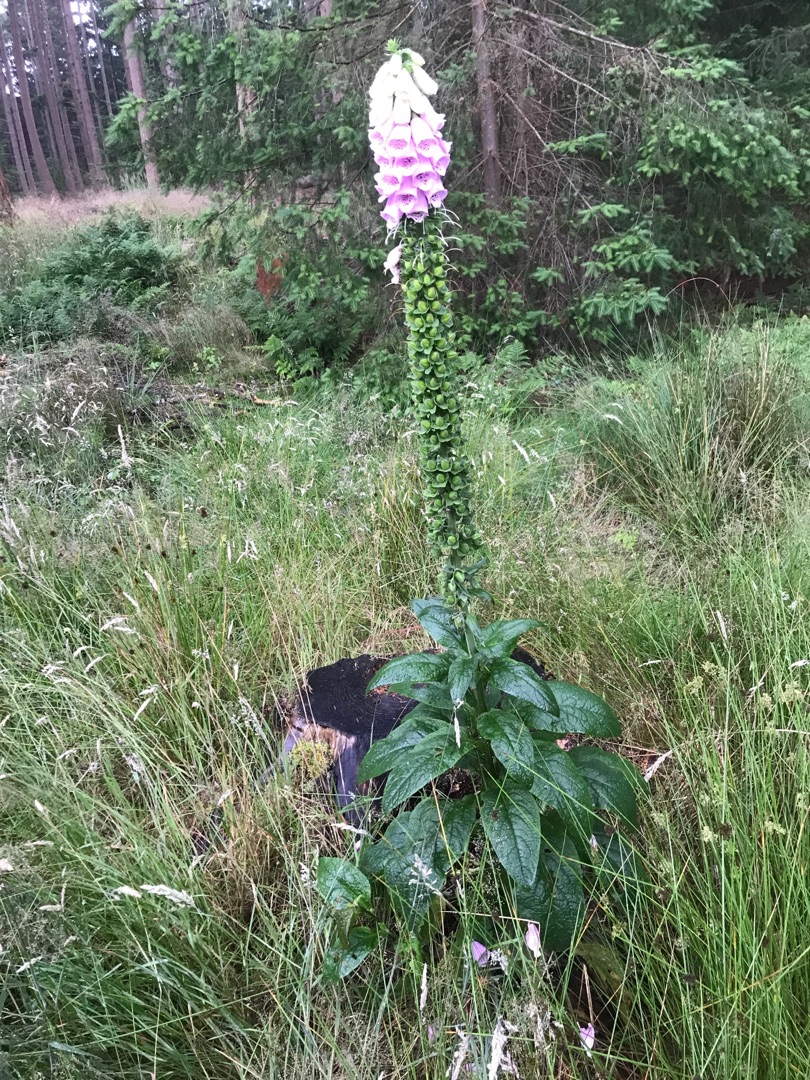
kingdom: Plantae
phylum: Tracheophyta
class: Magnoliopsida
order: Lamiales
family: Plantaginaceae
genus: Digitalis
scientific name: Digitalis purpurea
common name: Almindelig fingerbøl
